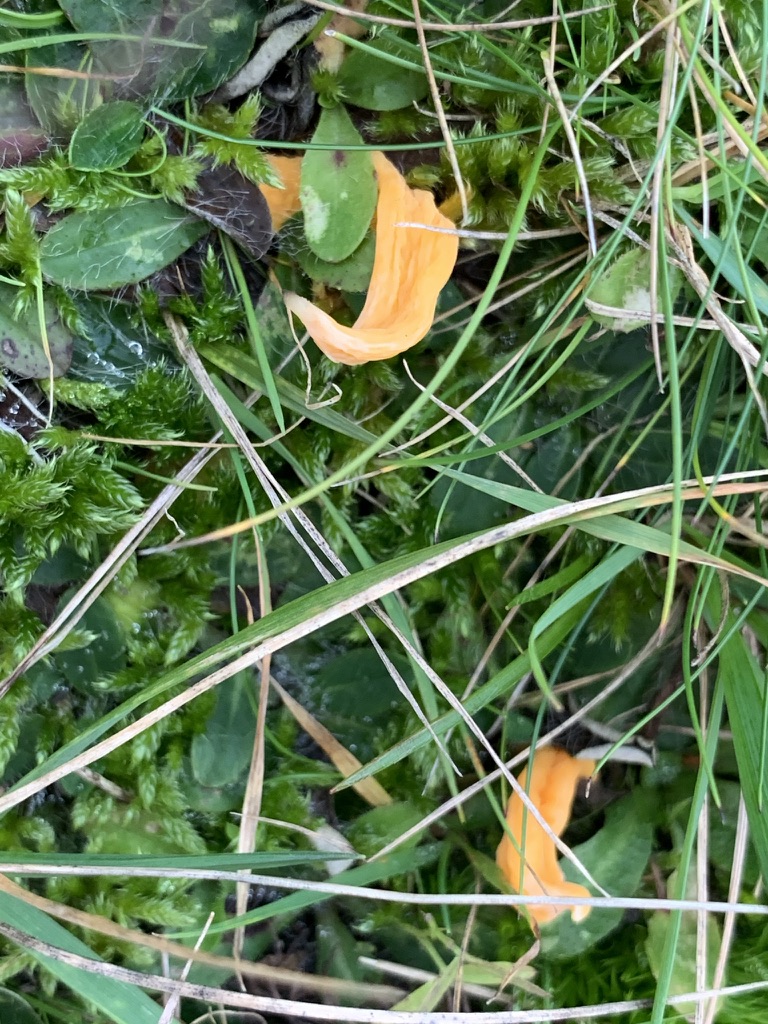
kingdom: Fungi
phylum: Basidiomycota
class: Agaricomycetes
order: Agaricales
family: Clavariaceae
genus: Clavulinopsis
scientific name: Clavulinopsis luteoalba
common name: abrikos-køllesvamp
